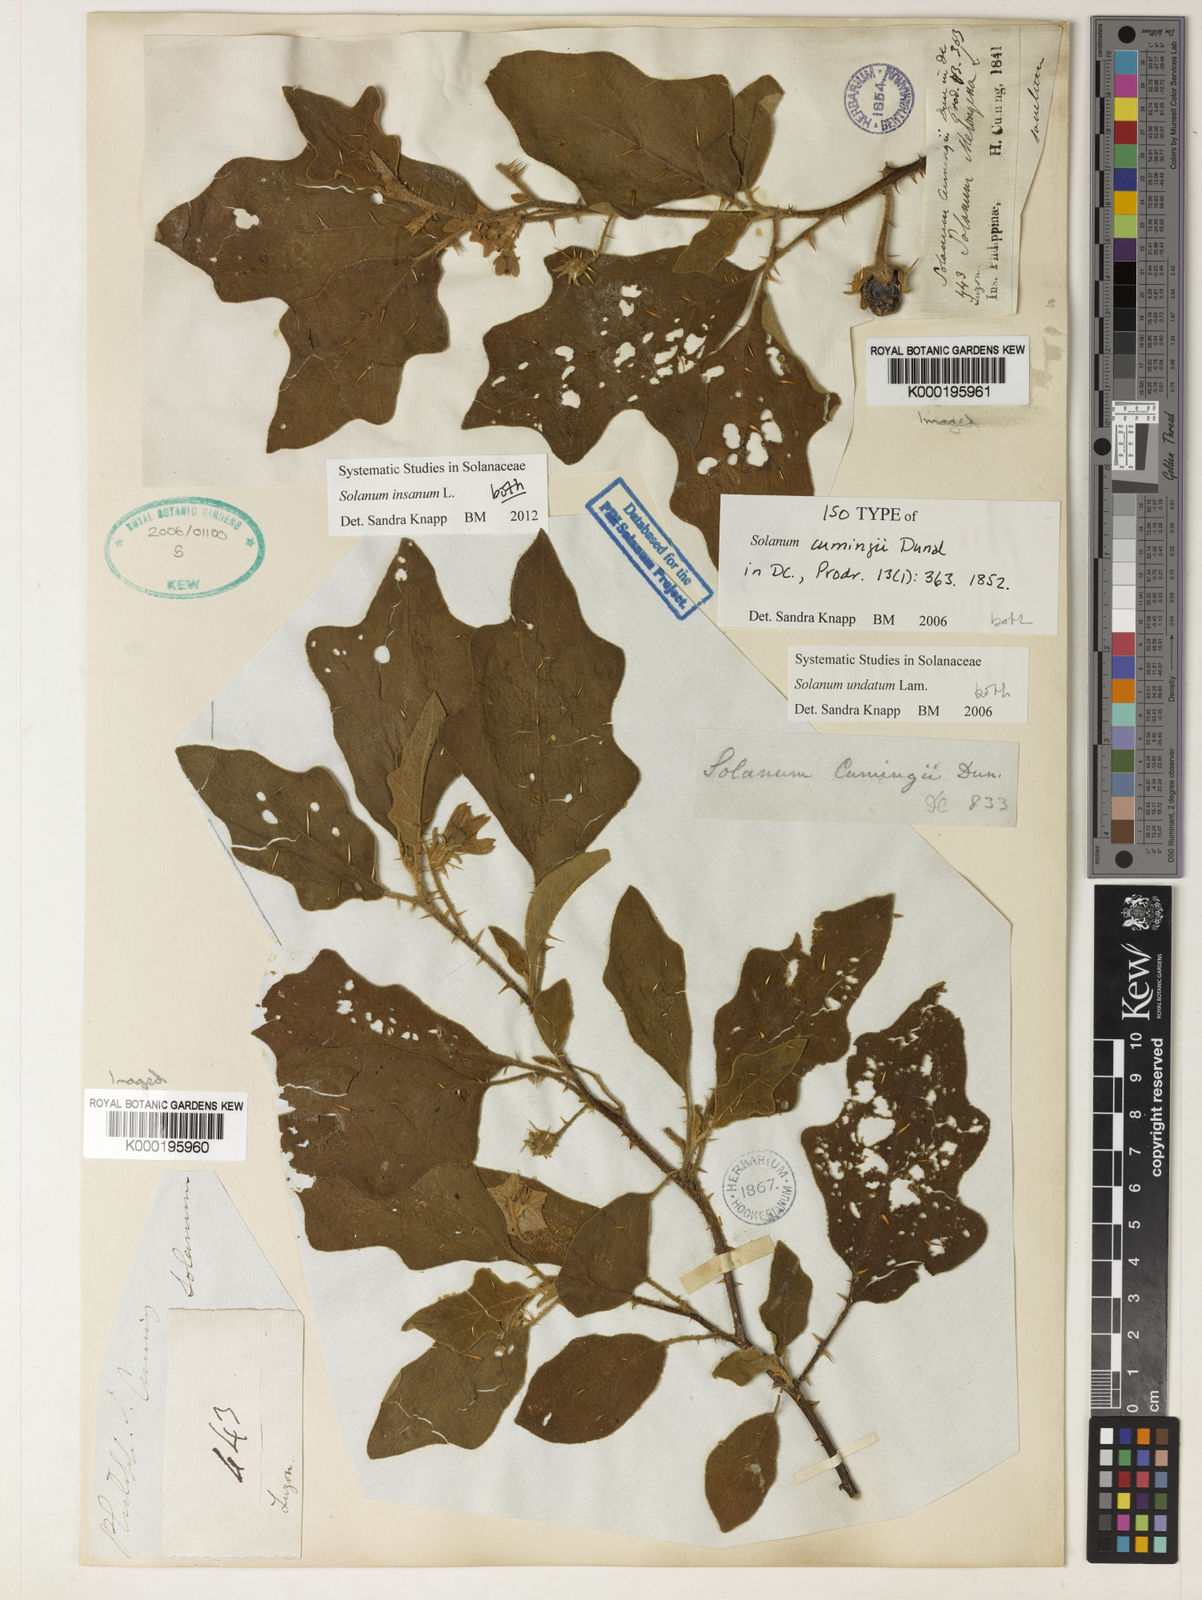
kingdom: Plantae
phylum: Tracheophyta
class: Magnoliopsida
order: Solanales
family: Solanaceae
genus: Solanum
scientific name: Solanum insanum
